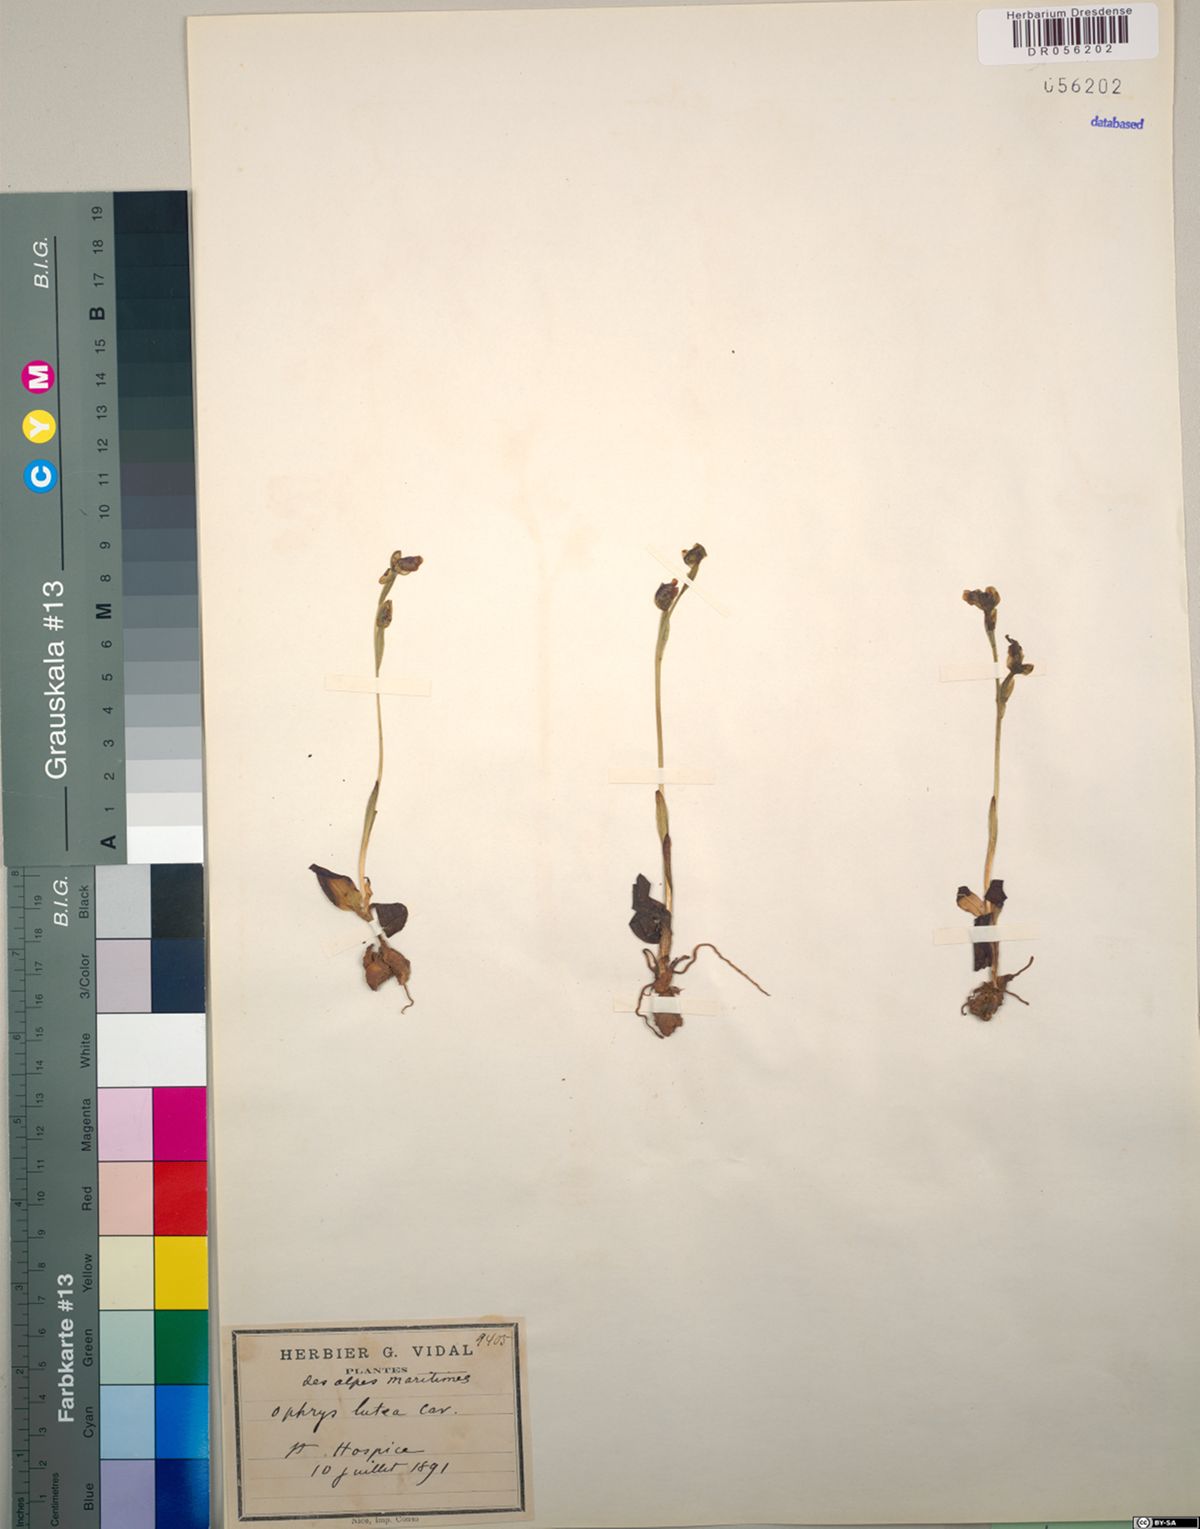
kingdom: Plantae
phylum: Tracheophyta
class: Liliopsida
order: Asparagales
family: Orchidaceae
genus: Ophrys
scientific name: Ophrys lutea
